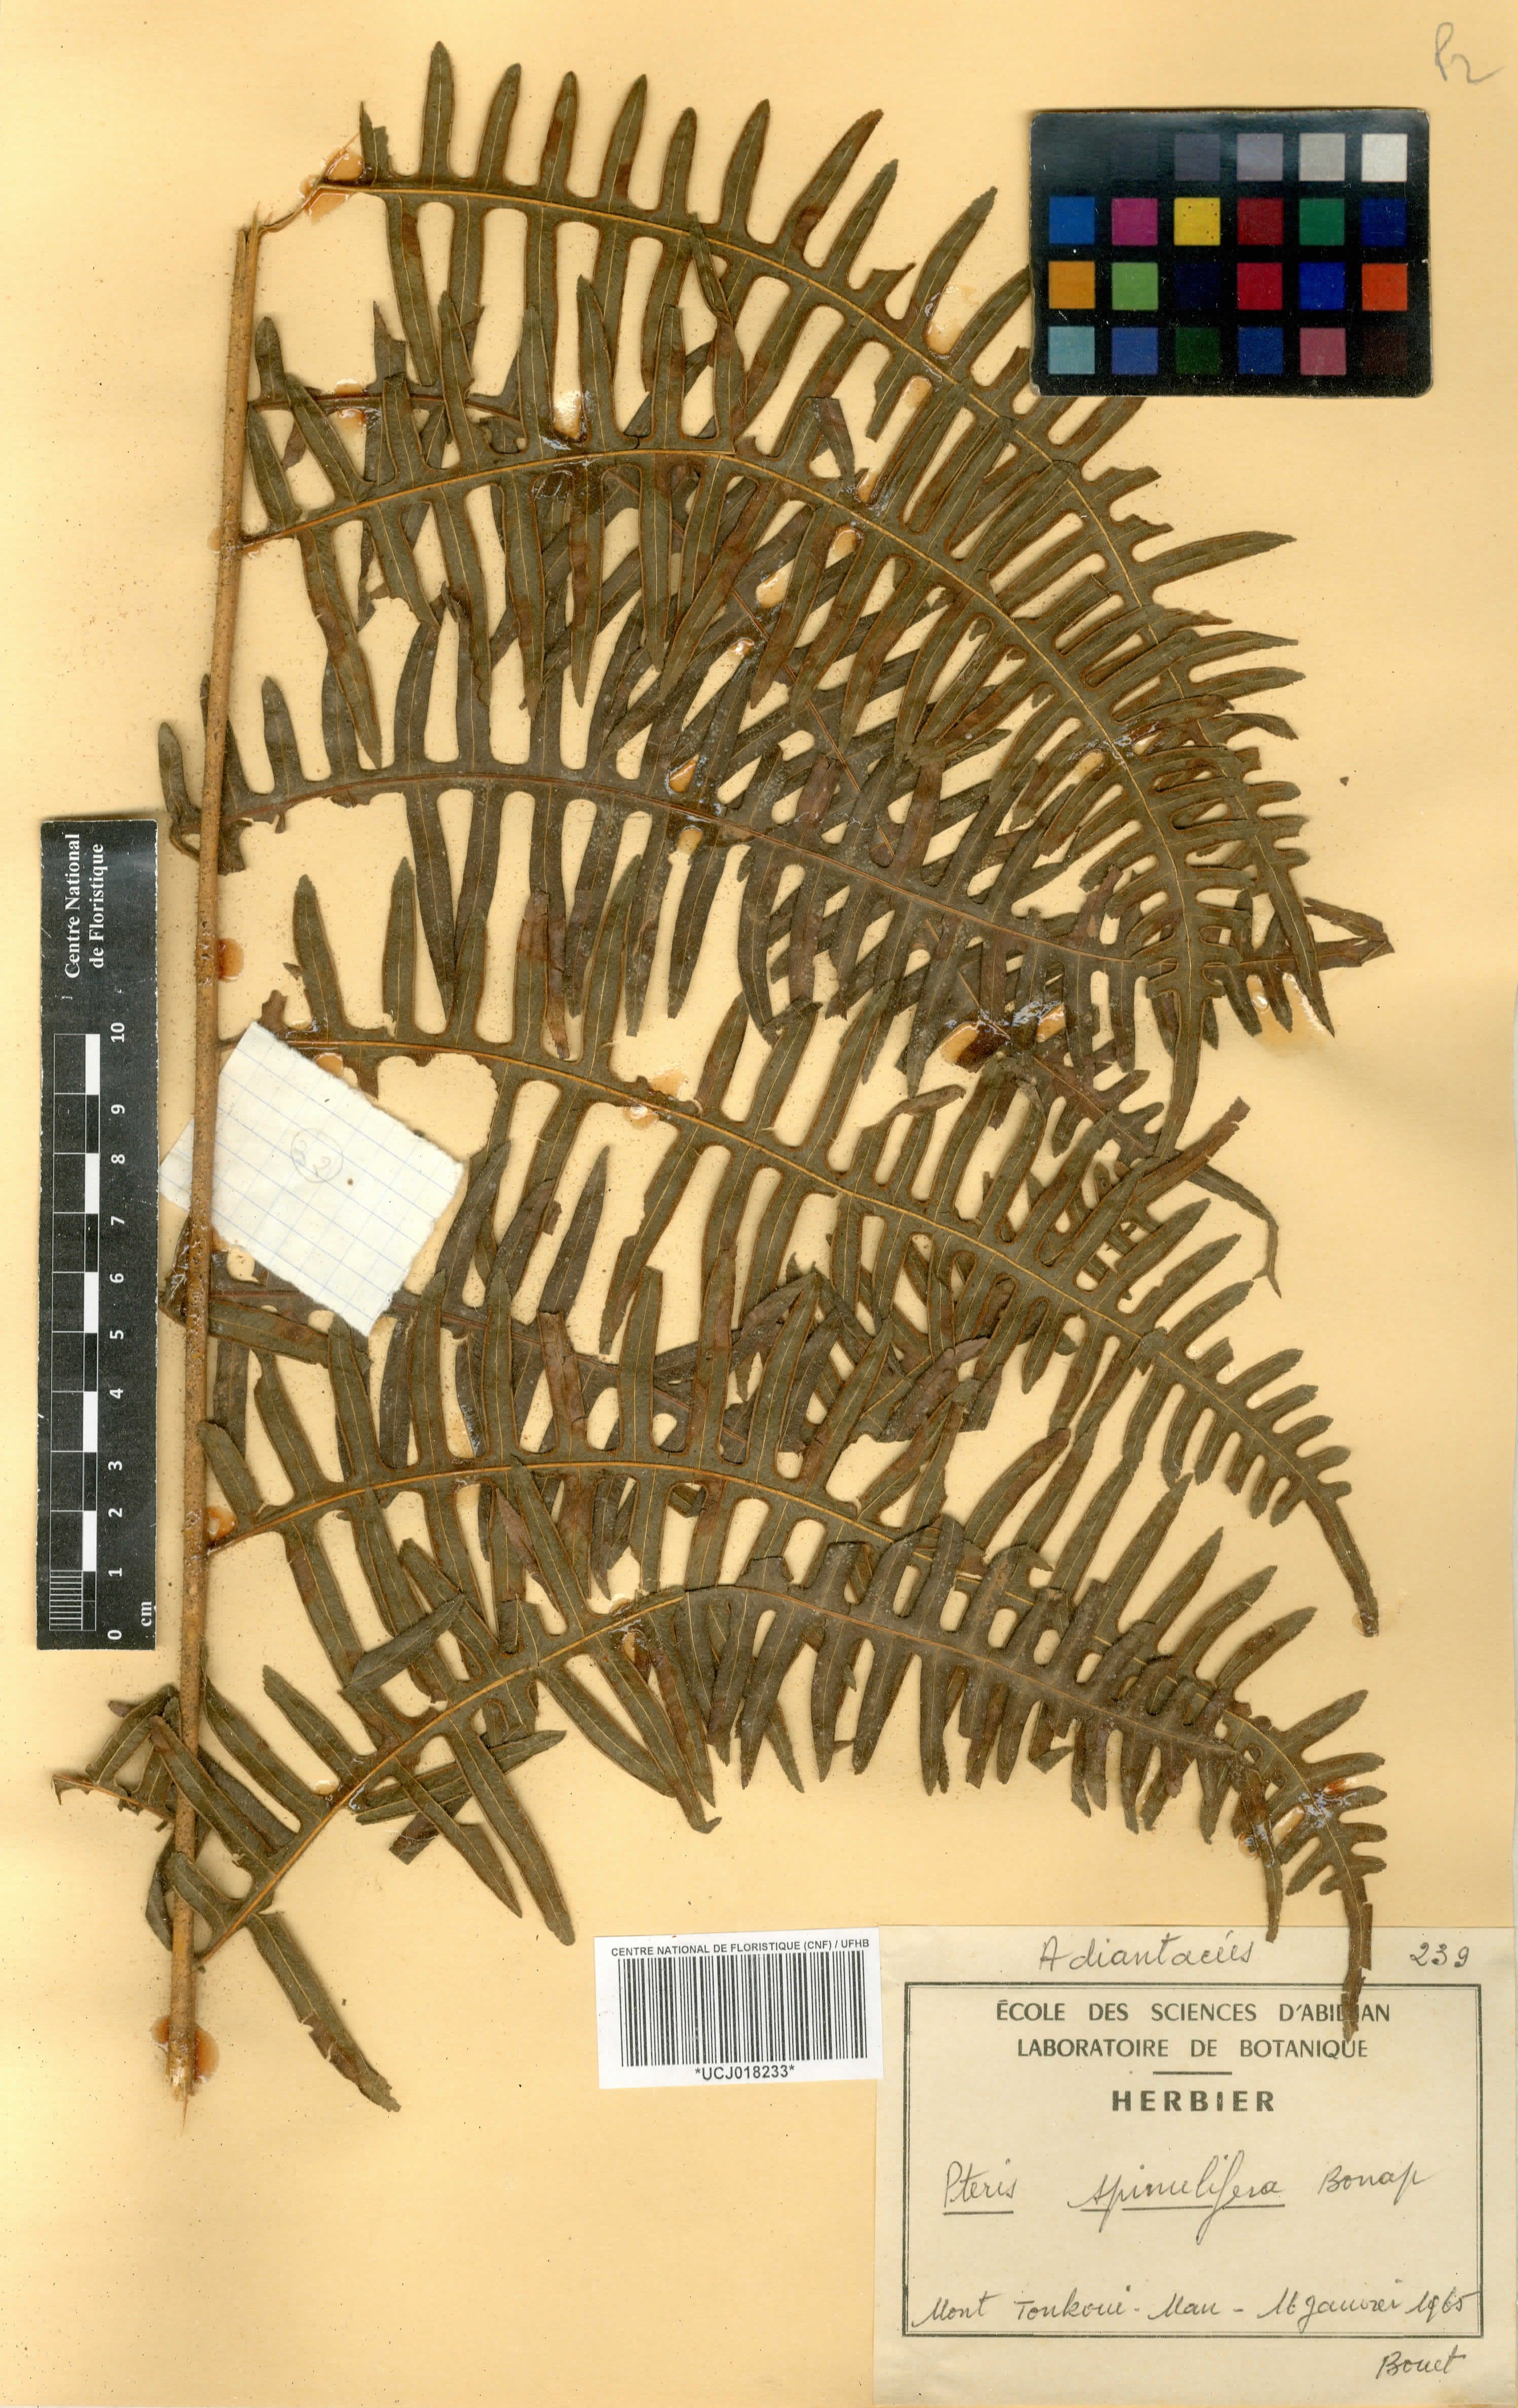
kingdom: Plantae
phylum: Tracheophyta
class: Polypodiopsida
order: Polypodiales
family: Pteridaceae
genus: Pteris
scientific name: Pteris atrovirens
